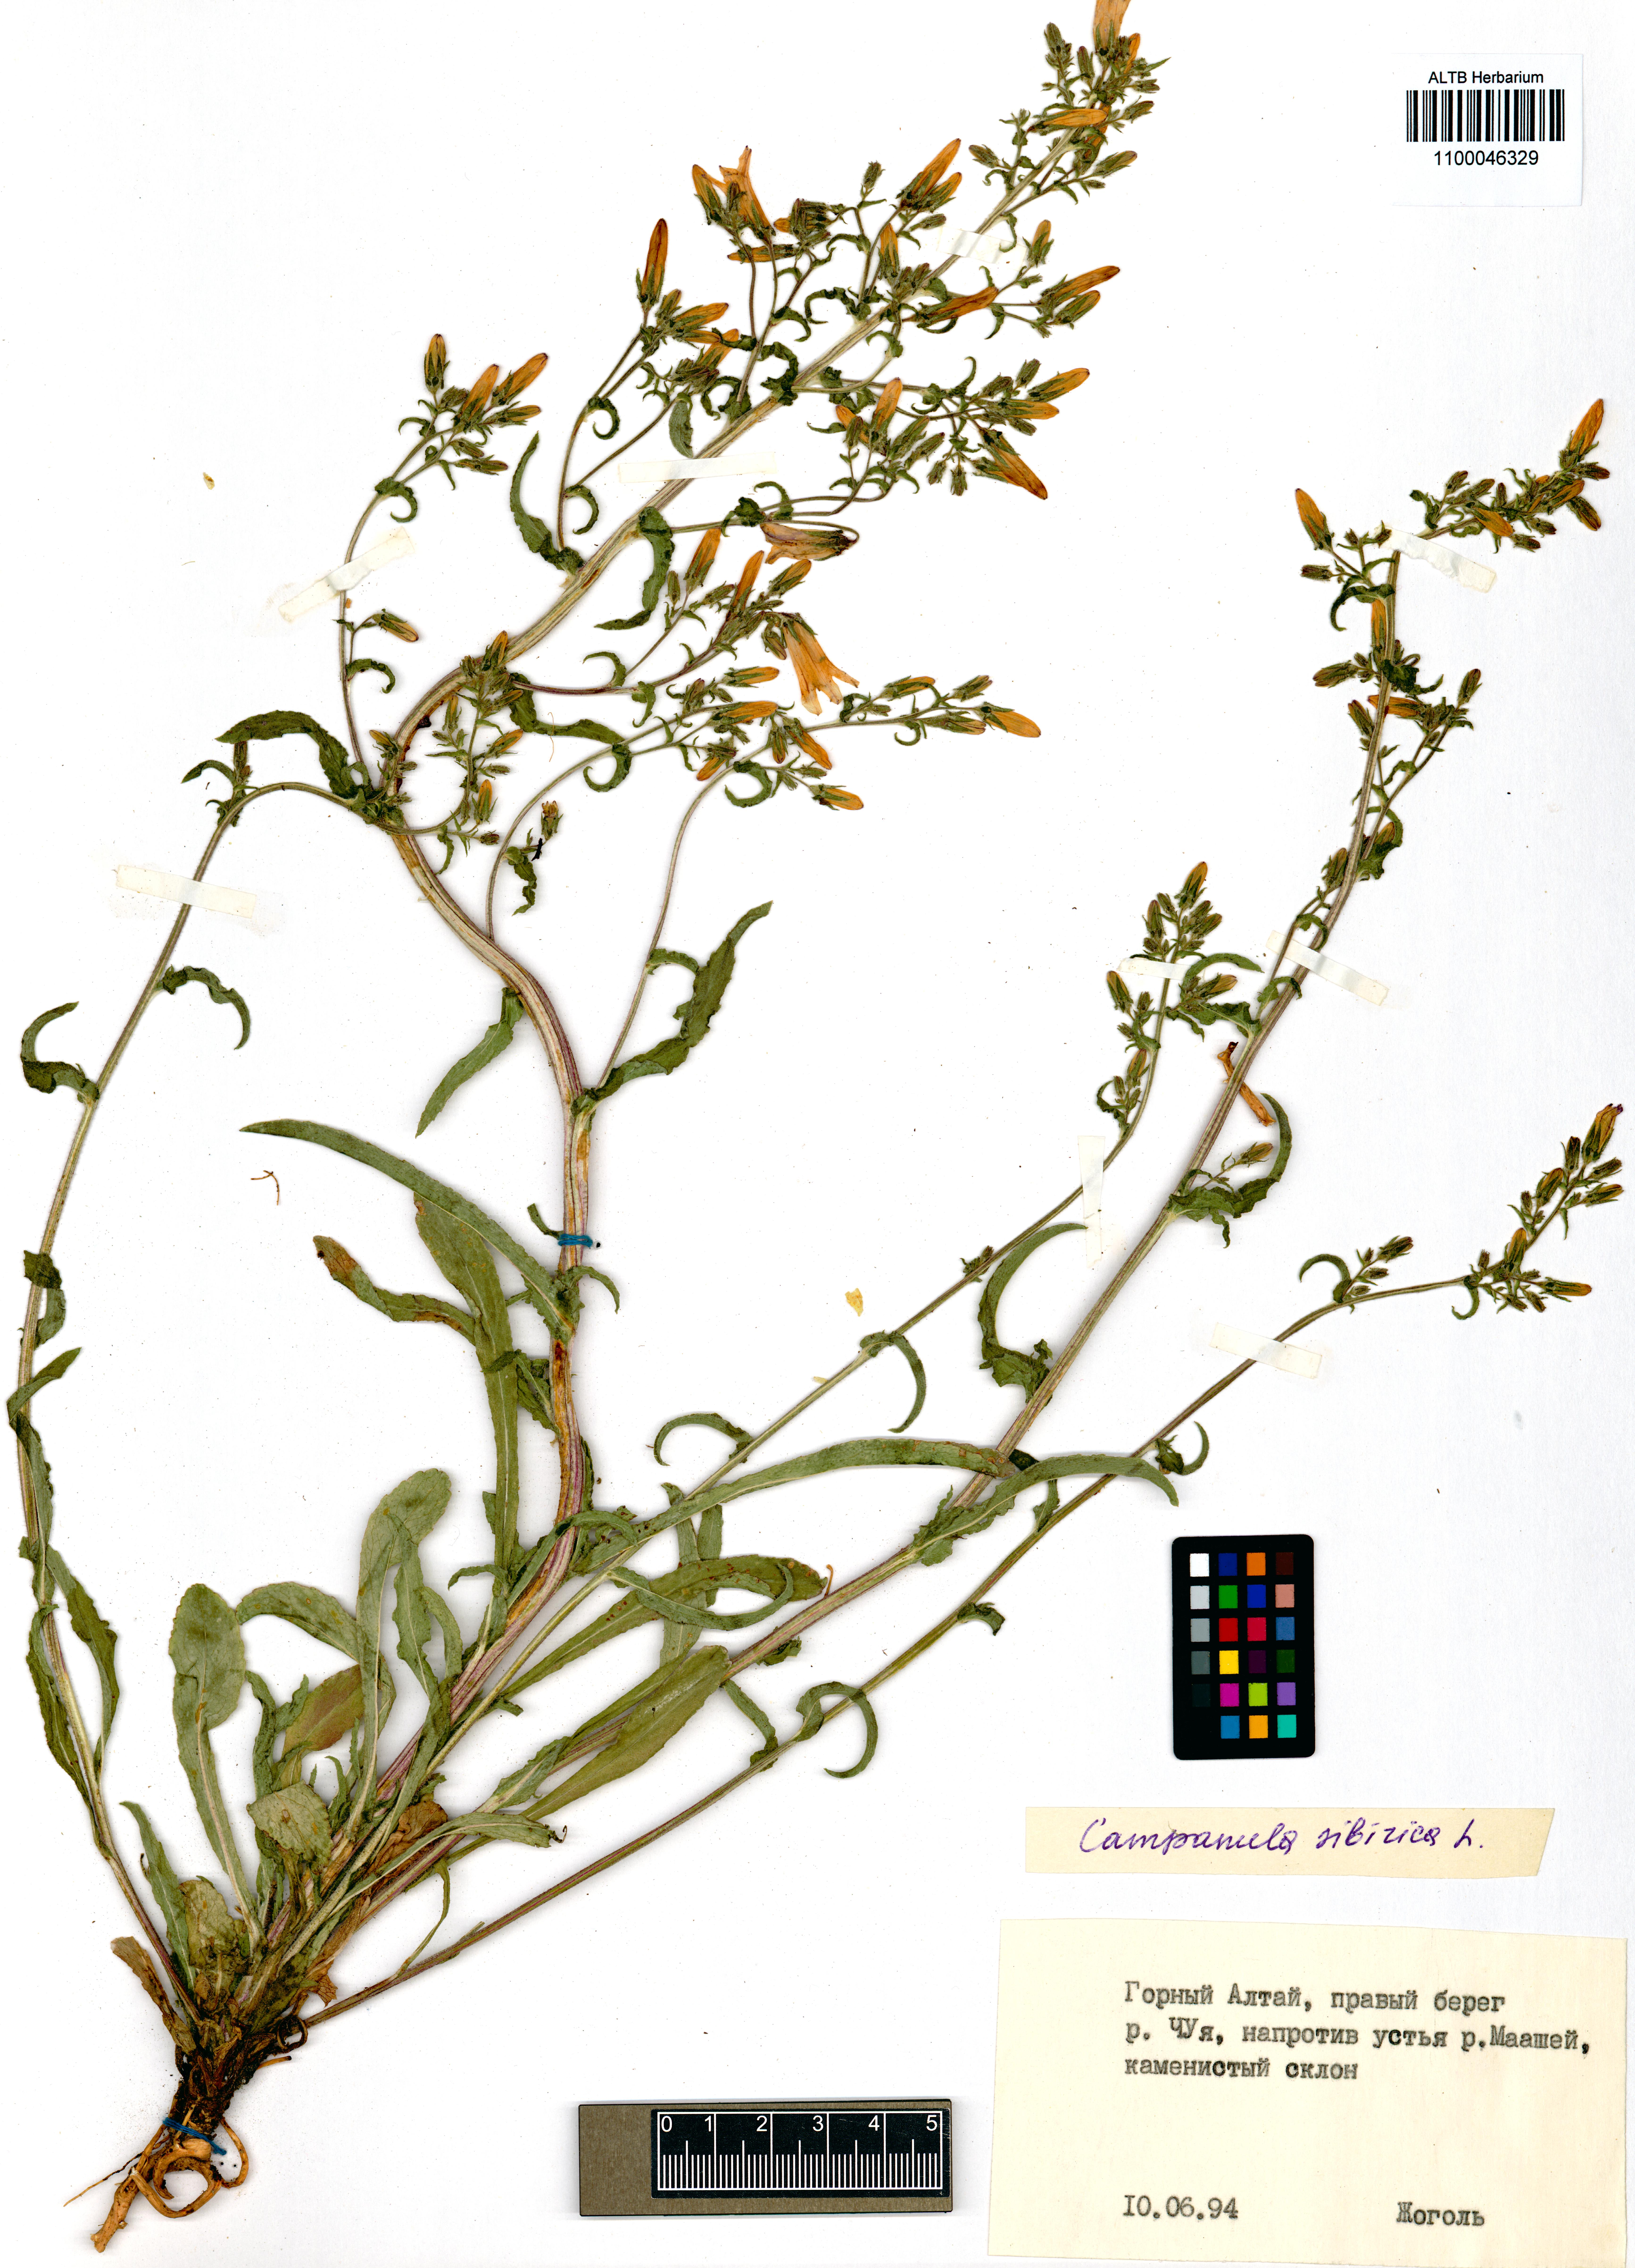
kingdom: Plantae
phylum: Tracheophyta
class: Magnoliopsida
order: Asterales
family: Campanulaceae
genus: Campanula
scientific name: Campanula sibirica
